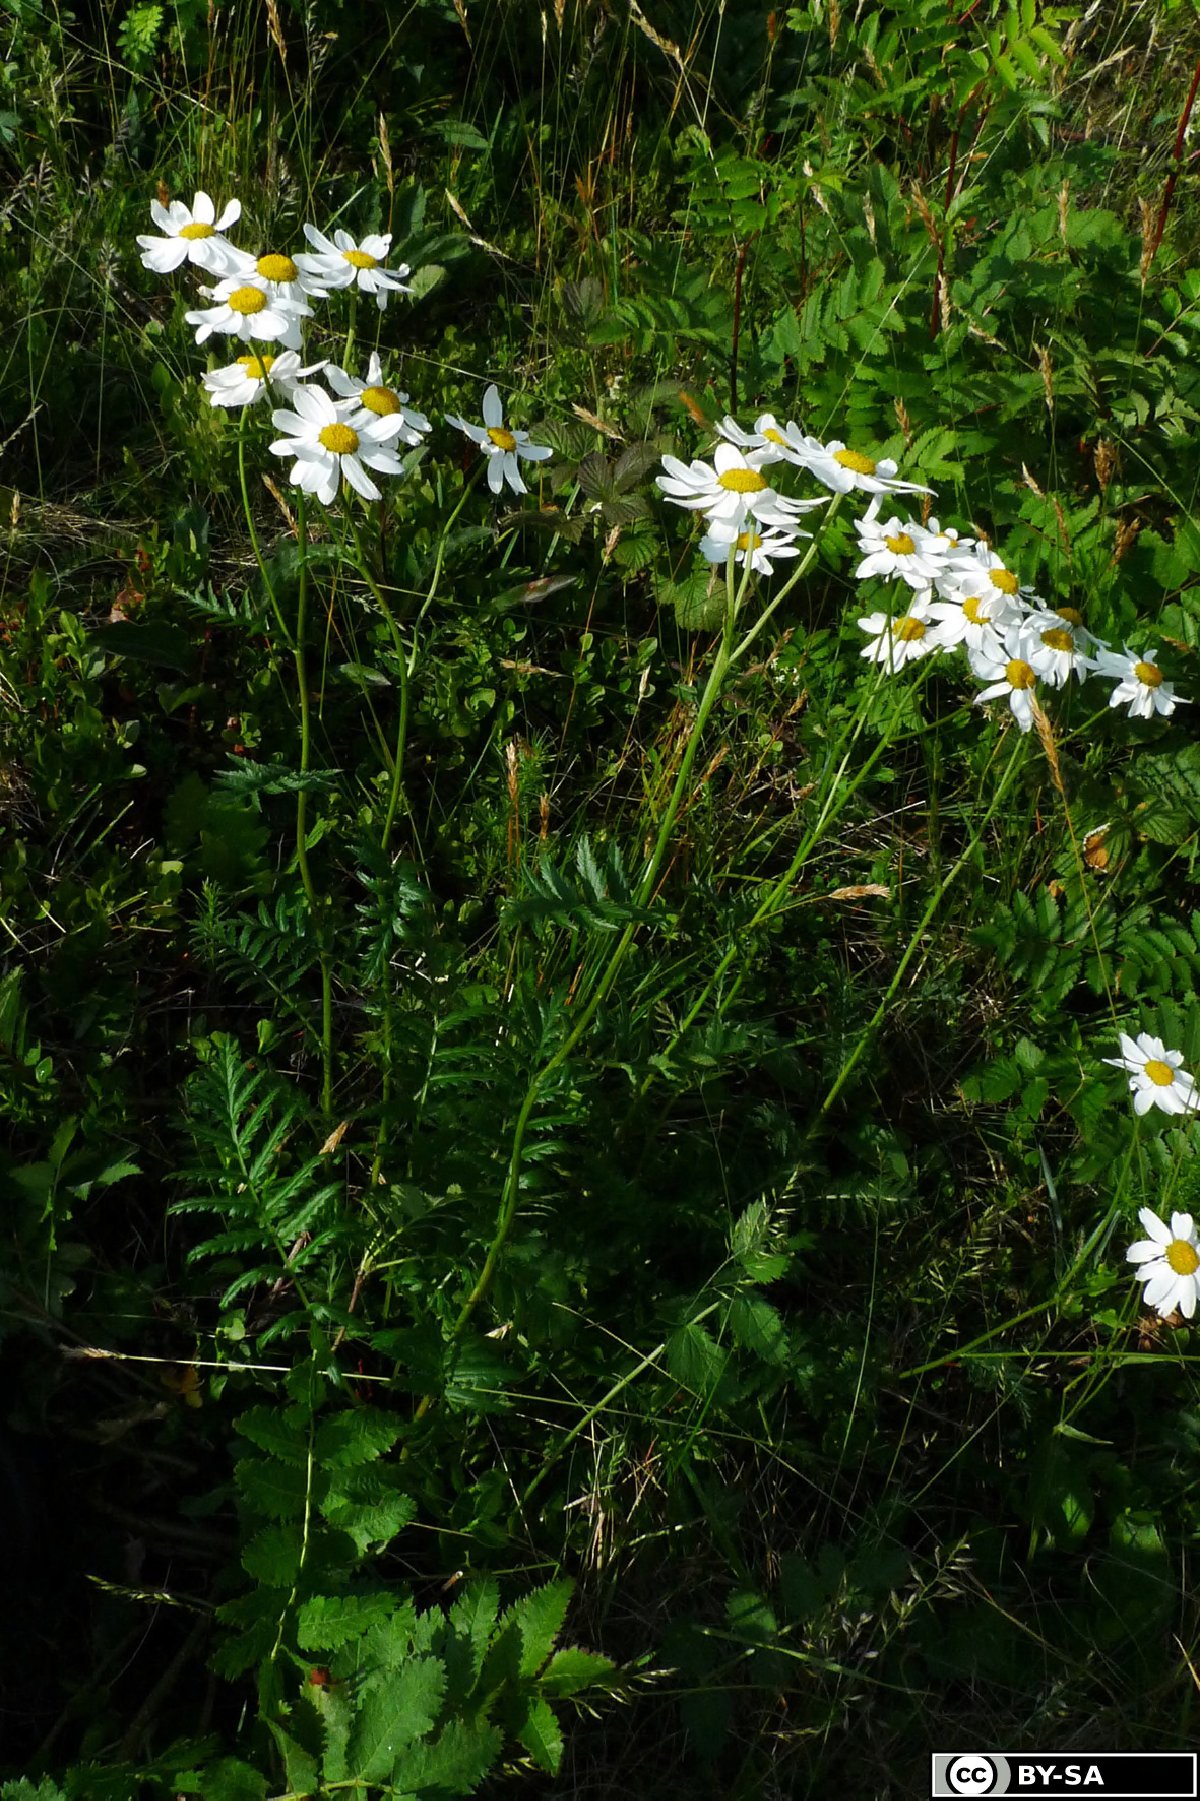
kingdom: Plantae
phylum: Tracheophyta
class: Magnoliopsida
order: Asterales
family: Asteraceae
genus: Tanacetum
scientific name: Tanacetum corymbosum
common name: Scentless feverfew
